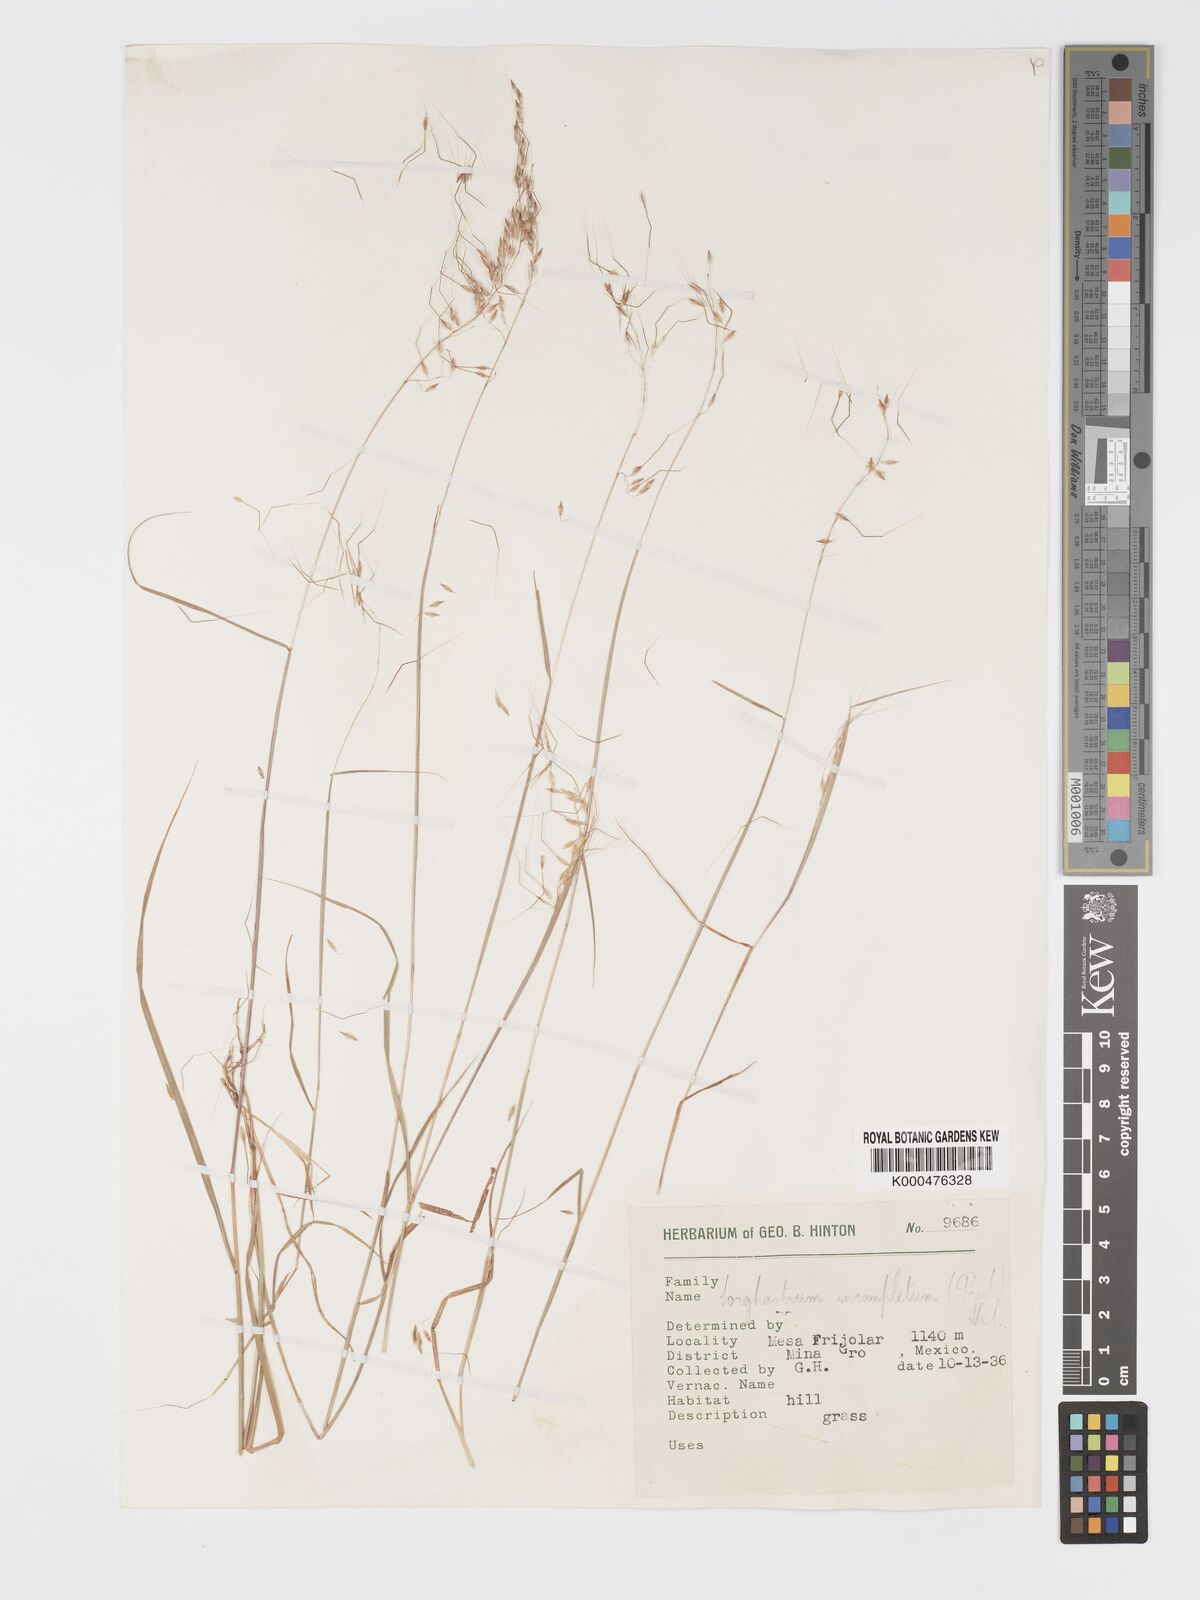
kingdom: Plantae
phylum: Tracheophyta
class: Liliopsida
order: Poales
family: Poaceae
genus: Sorghastrum
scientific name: Sorghastrum incompletum
